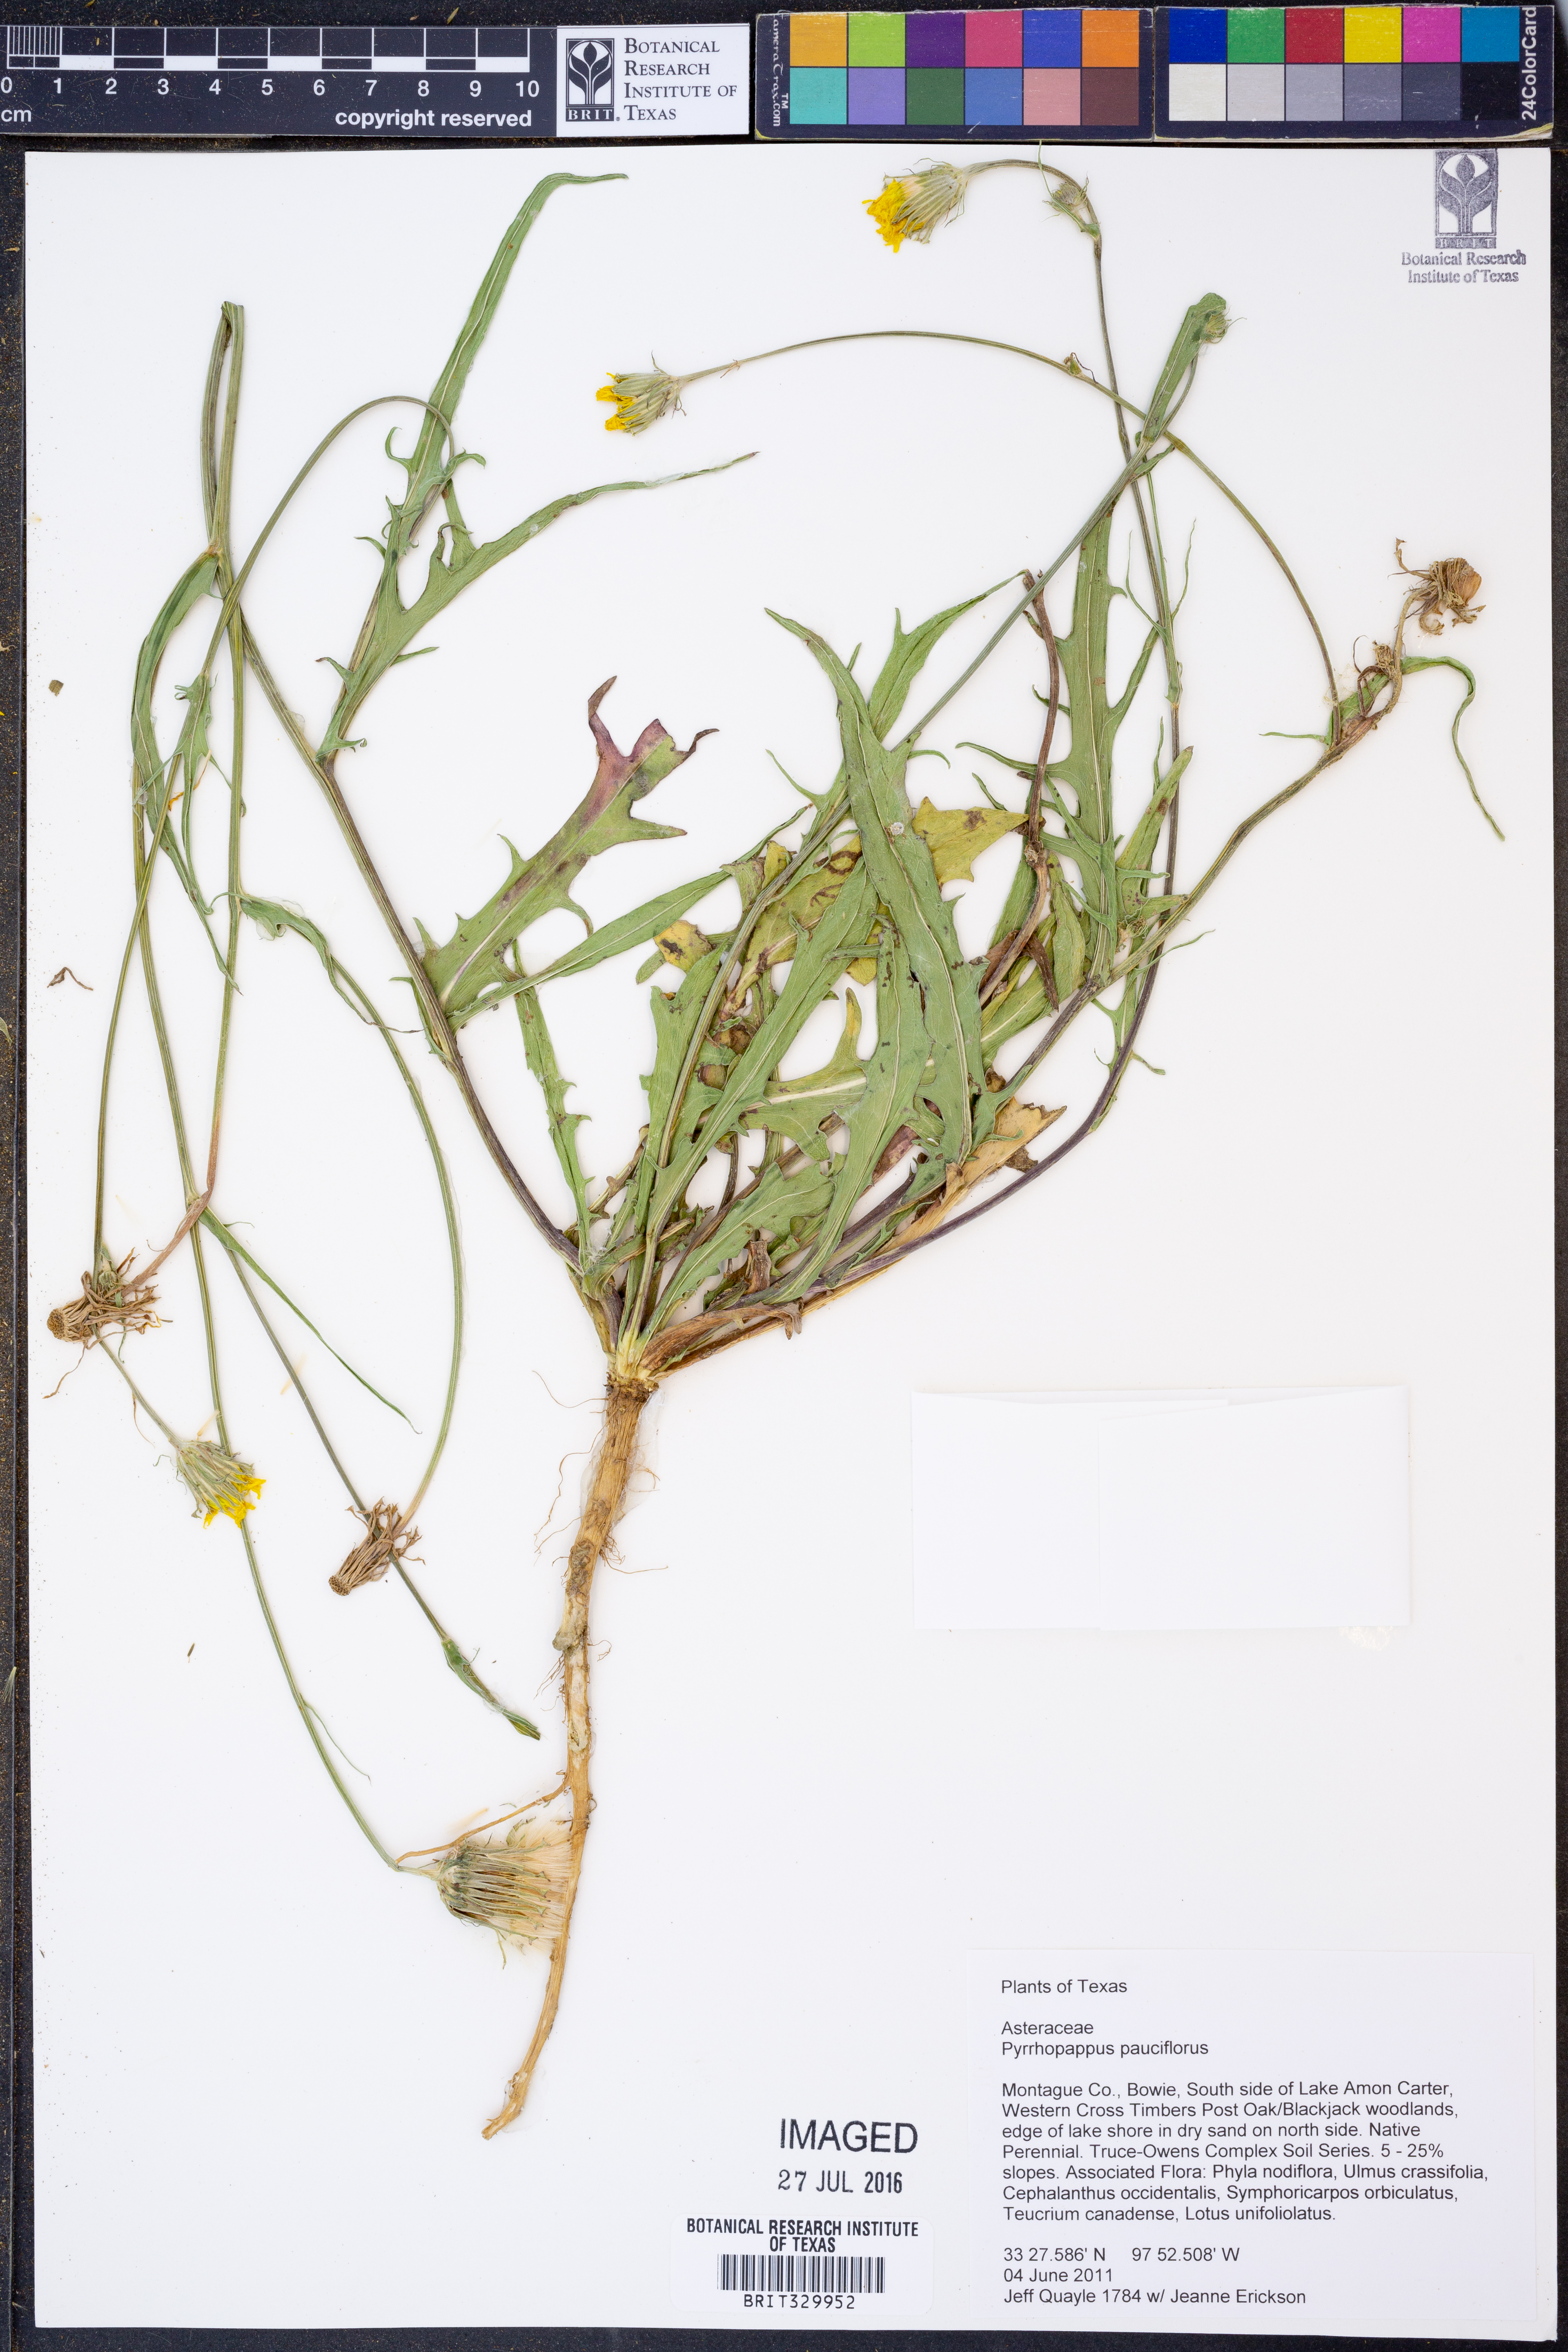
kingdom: Plantae
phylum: Tracheophyta
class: Magnoliopsida
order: Asterales
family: Asteraceae
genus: Pyrrhopappus
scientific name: Pyrrhopappus pauciflorus
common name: Texas false dandelion
